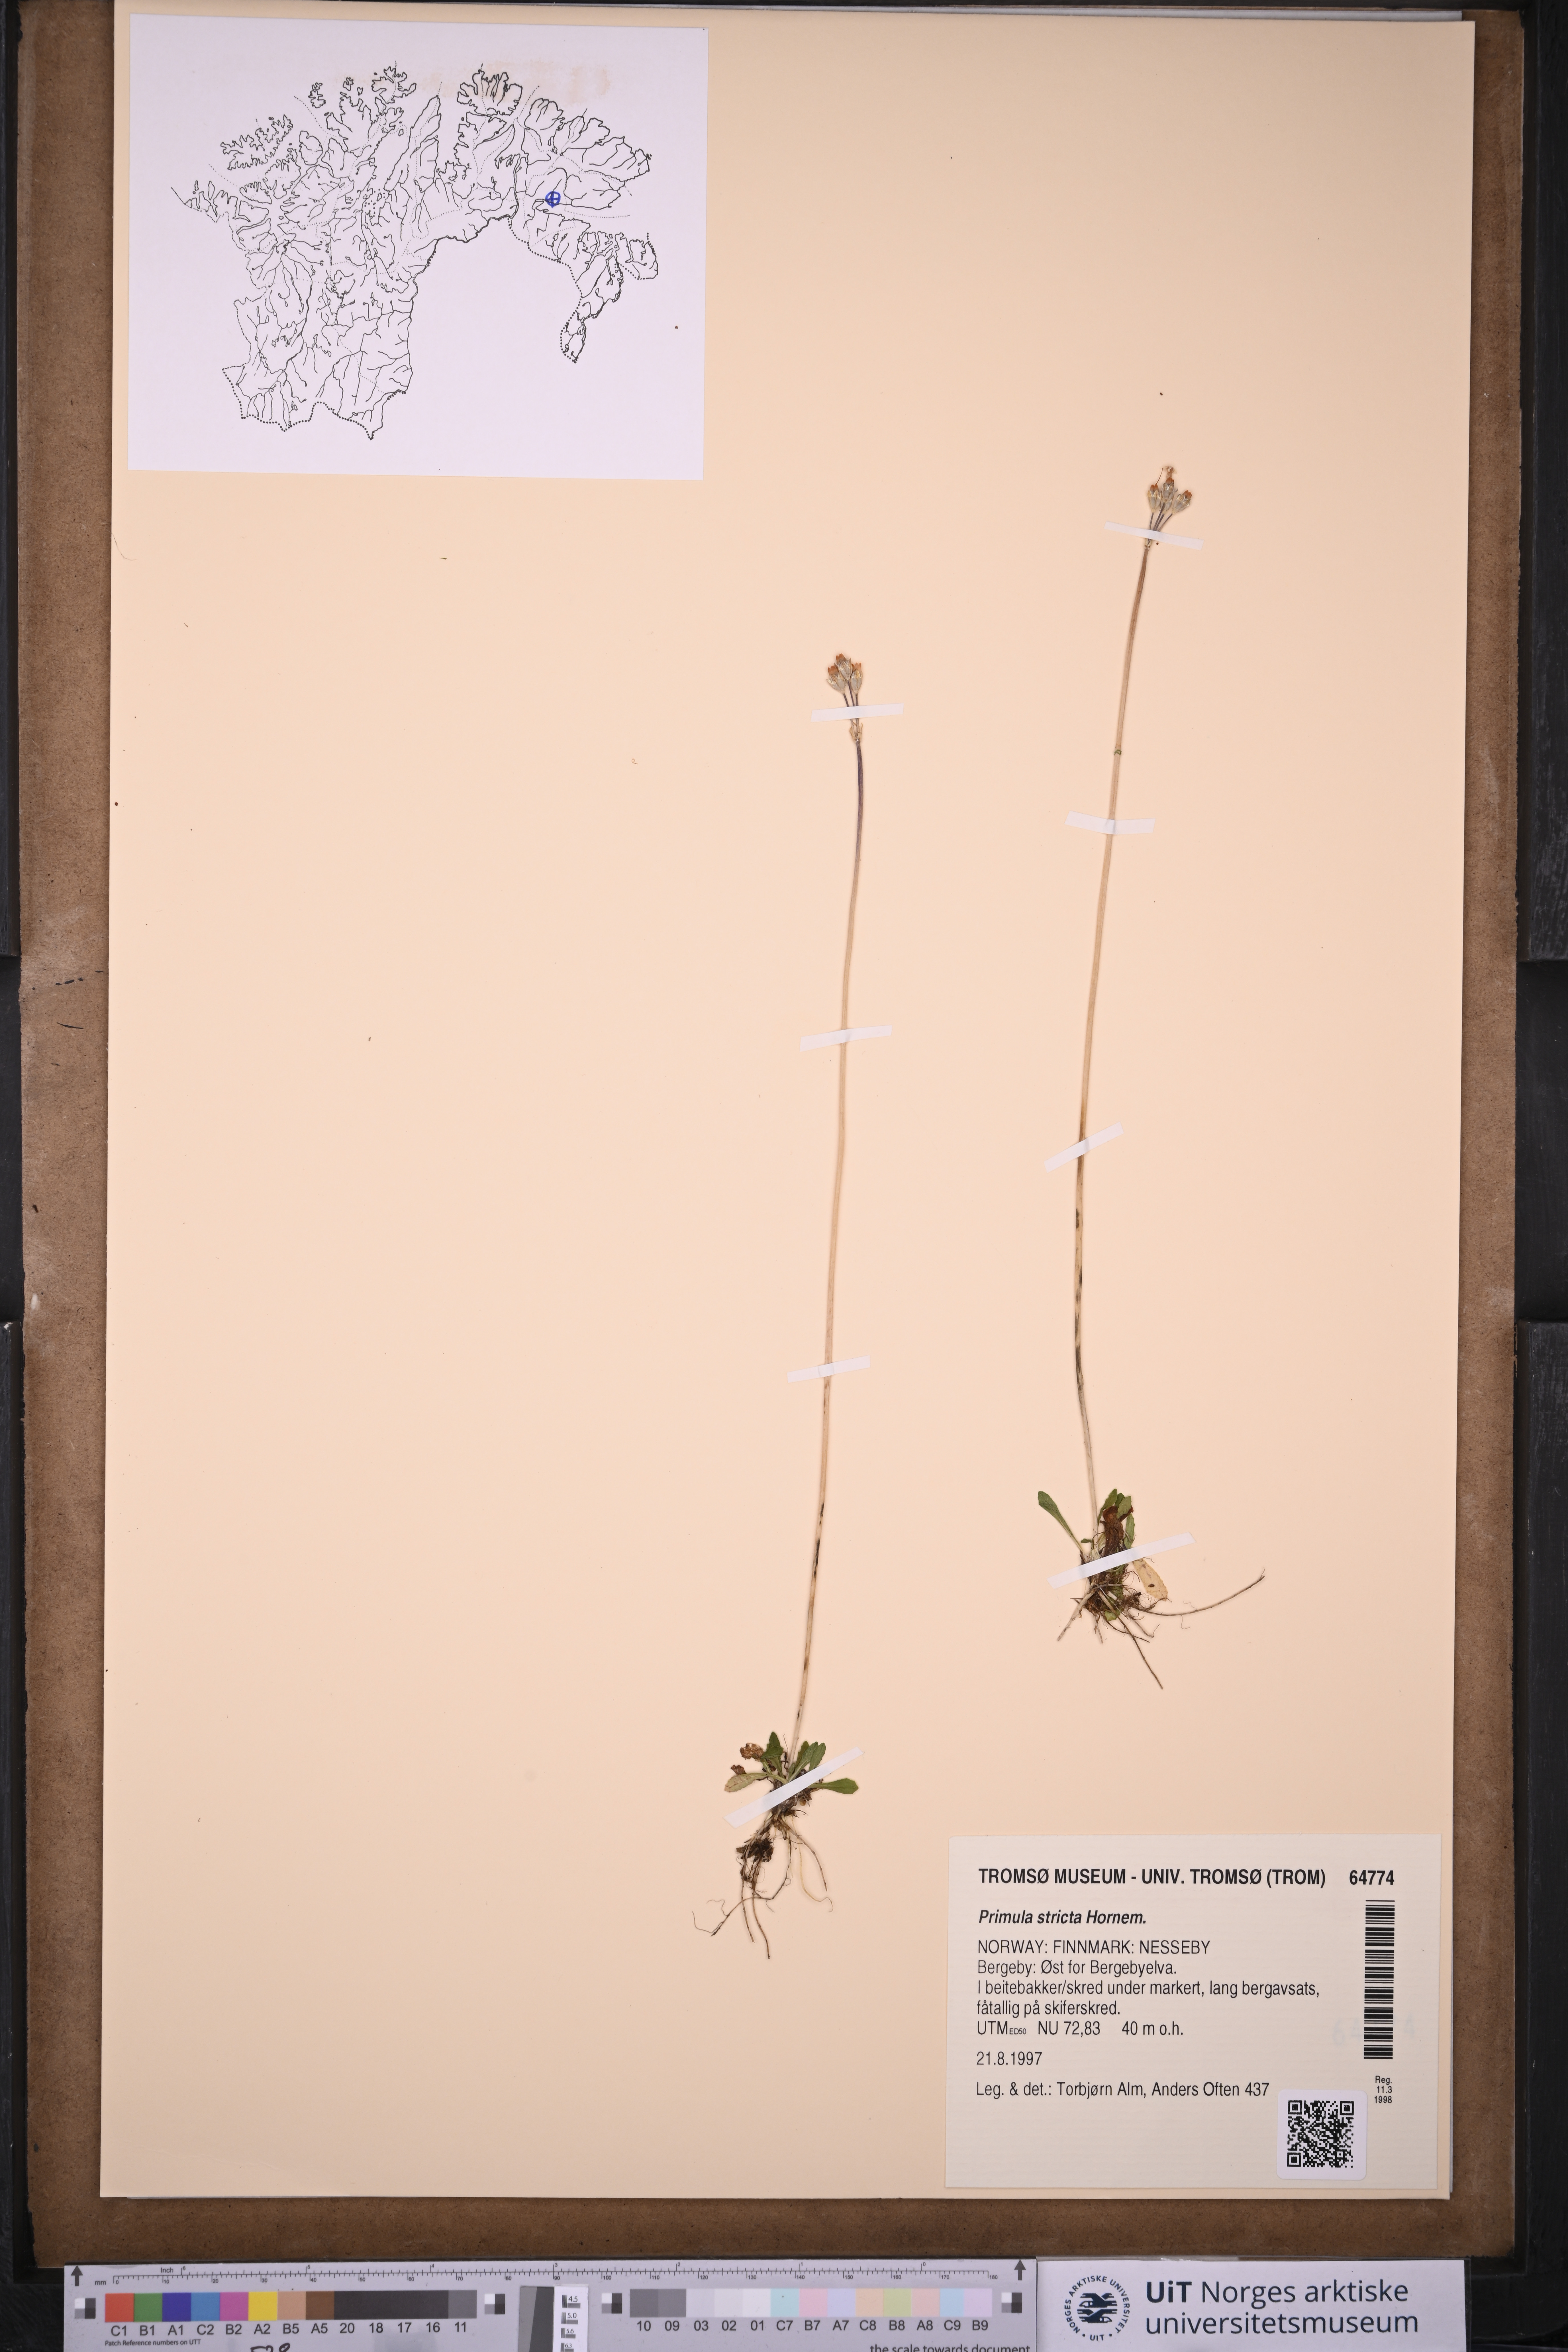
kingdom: Plantae
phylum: Tracheophyta
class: Magnoliopsida
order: Ericales
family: Primulaceae
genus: Primula
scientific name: Primula stricta
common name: Coastal primrose
